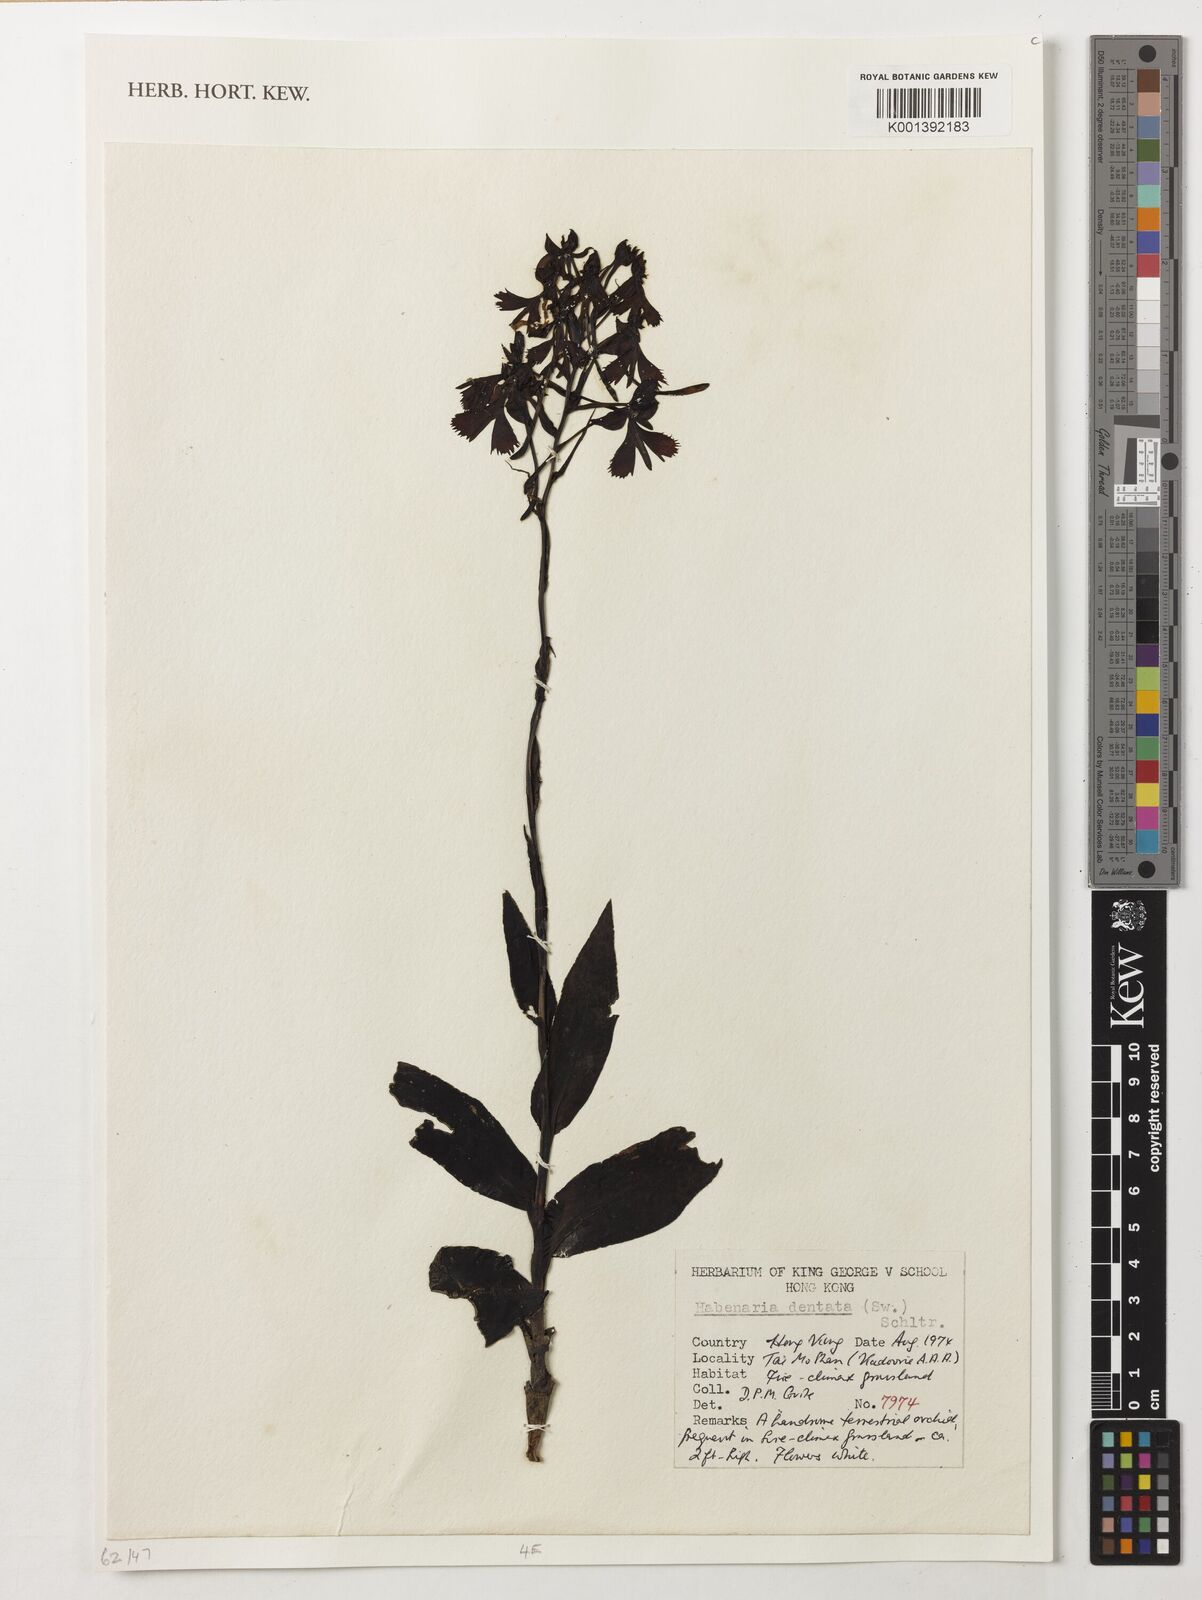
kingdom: Plantae
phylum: Tracheophyta
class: Liliopsida
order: Asparagales
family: Orchidaceae
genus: Habenaria
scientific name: Habenaria dentata
